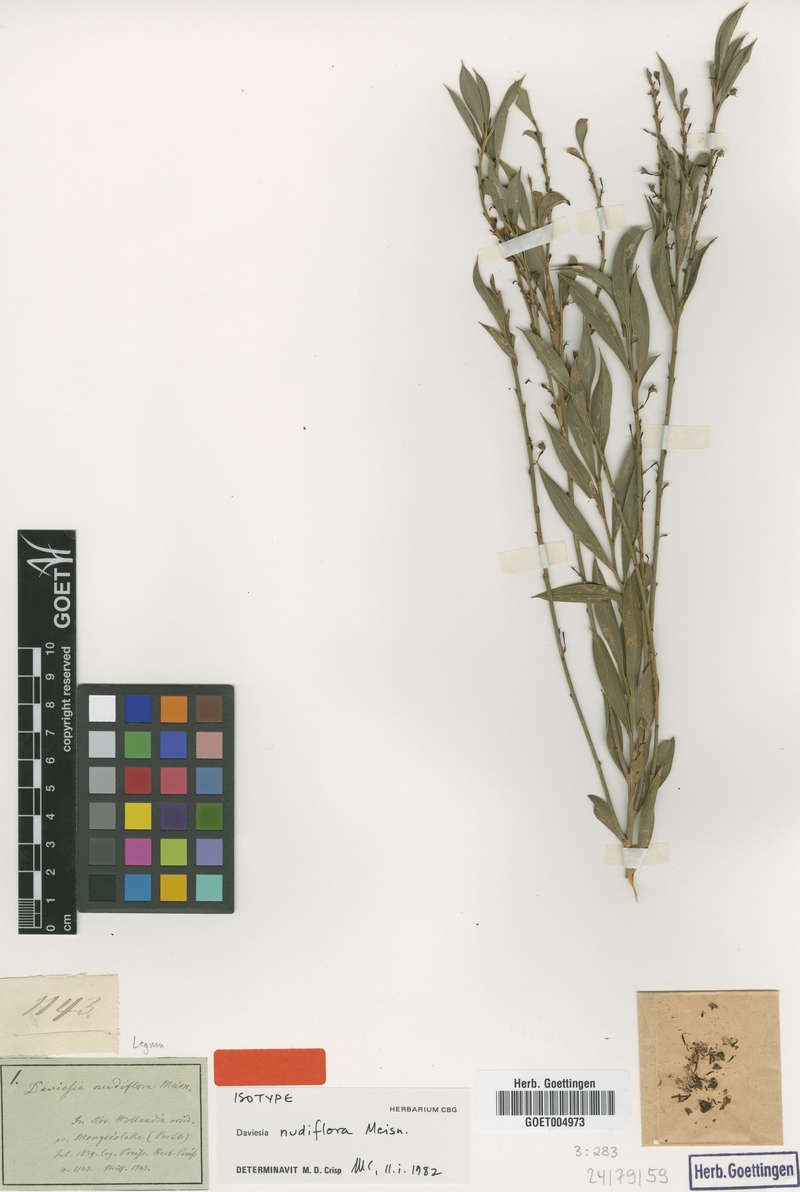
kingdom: Plantae
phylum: Tracheophyta
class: Magnoliopsida
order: Fabales
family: Fabaceae
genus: Daviesia
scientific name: Daviesia nudiflora
